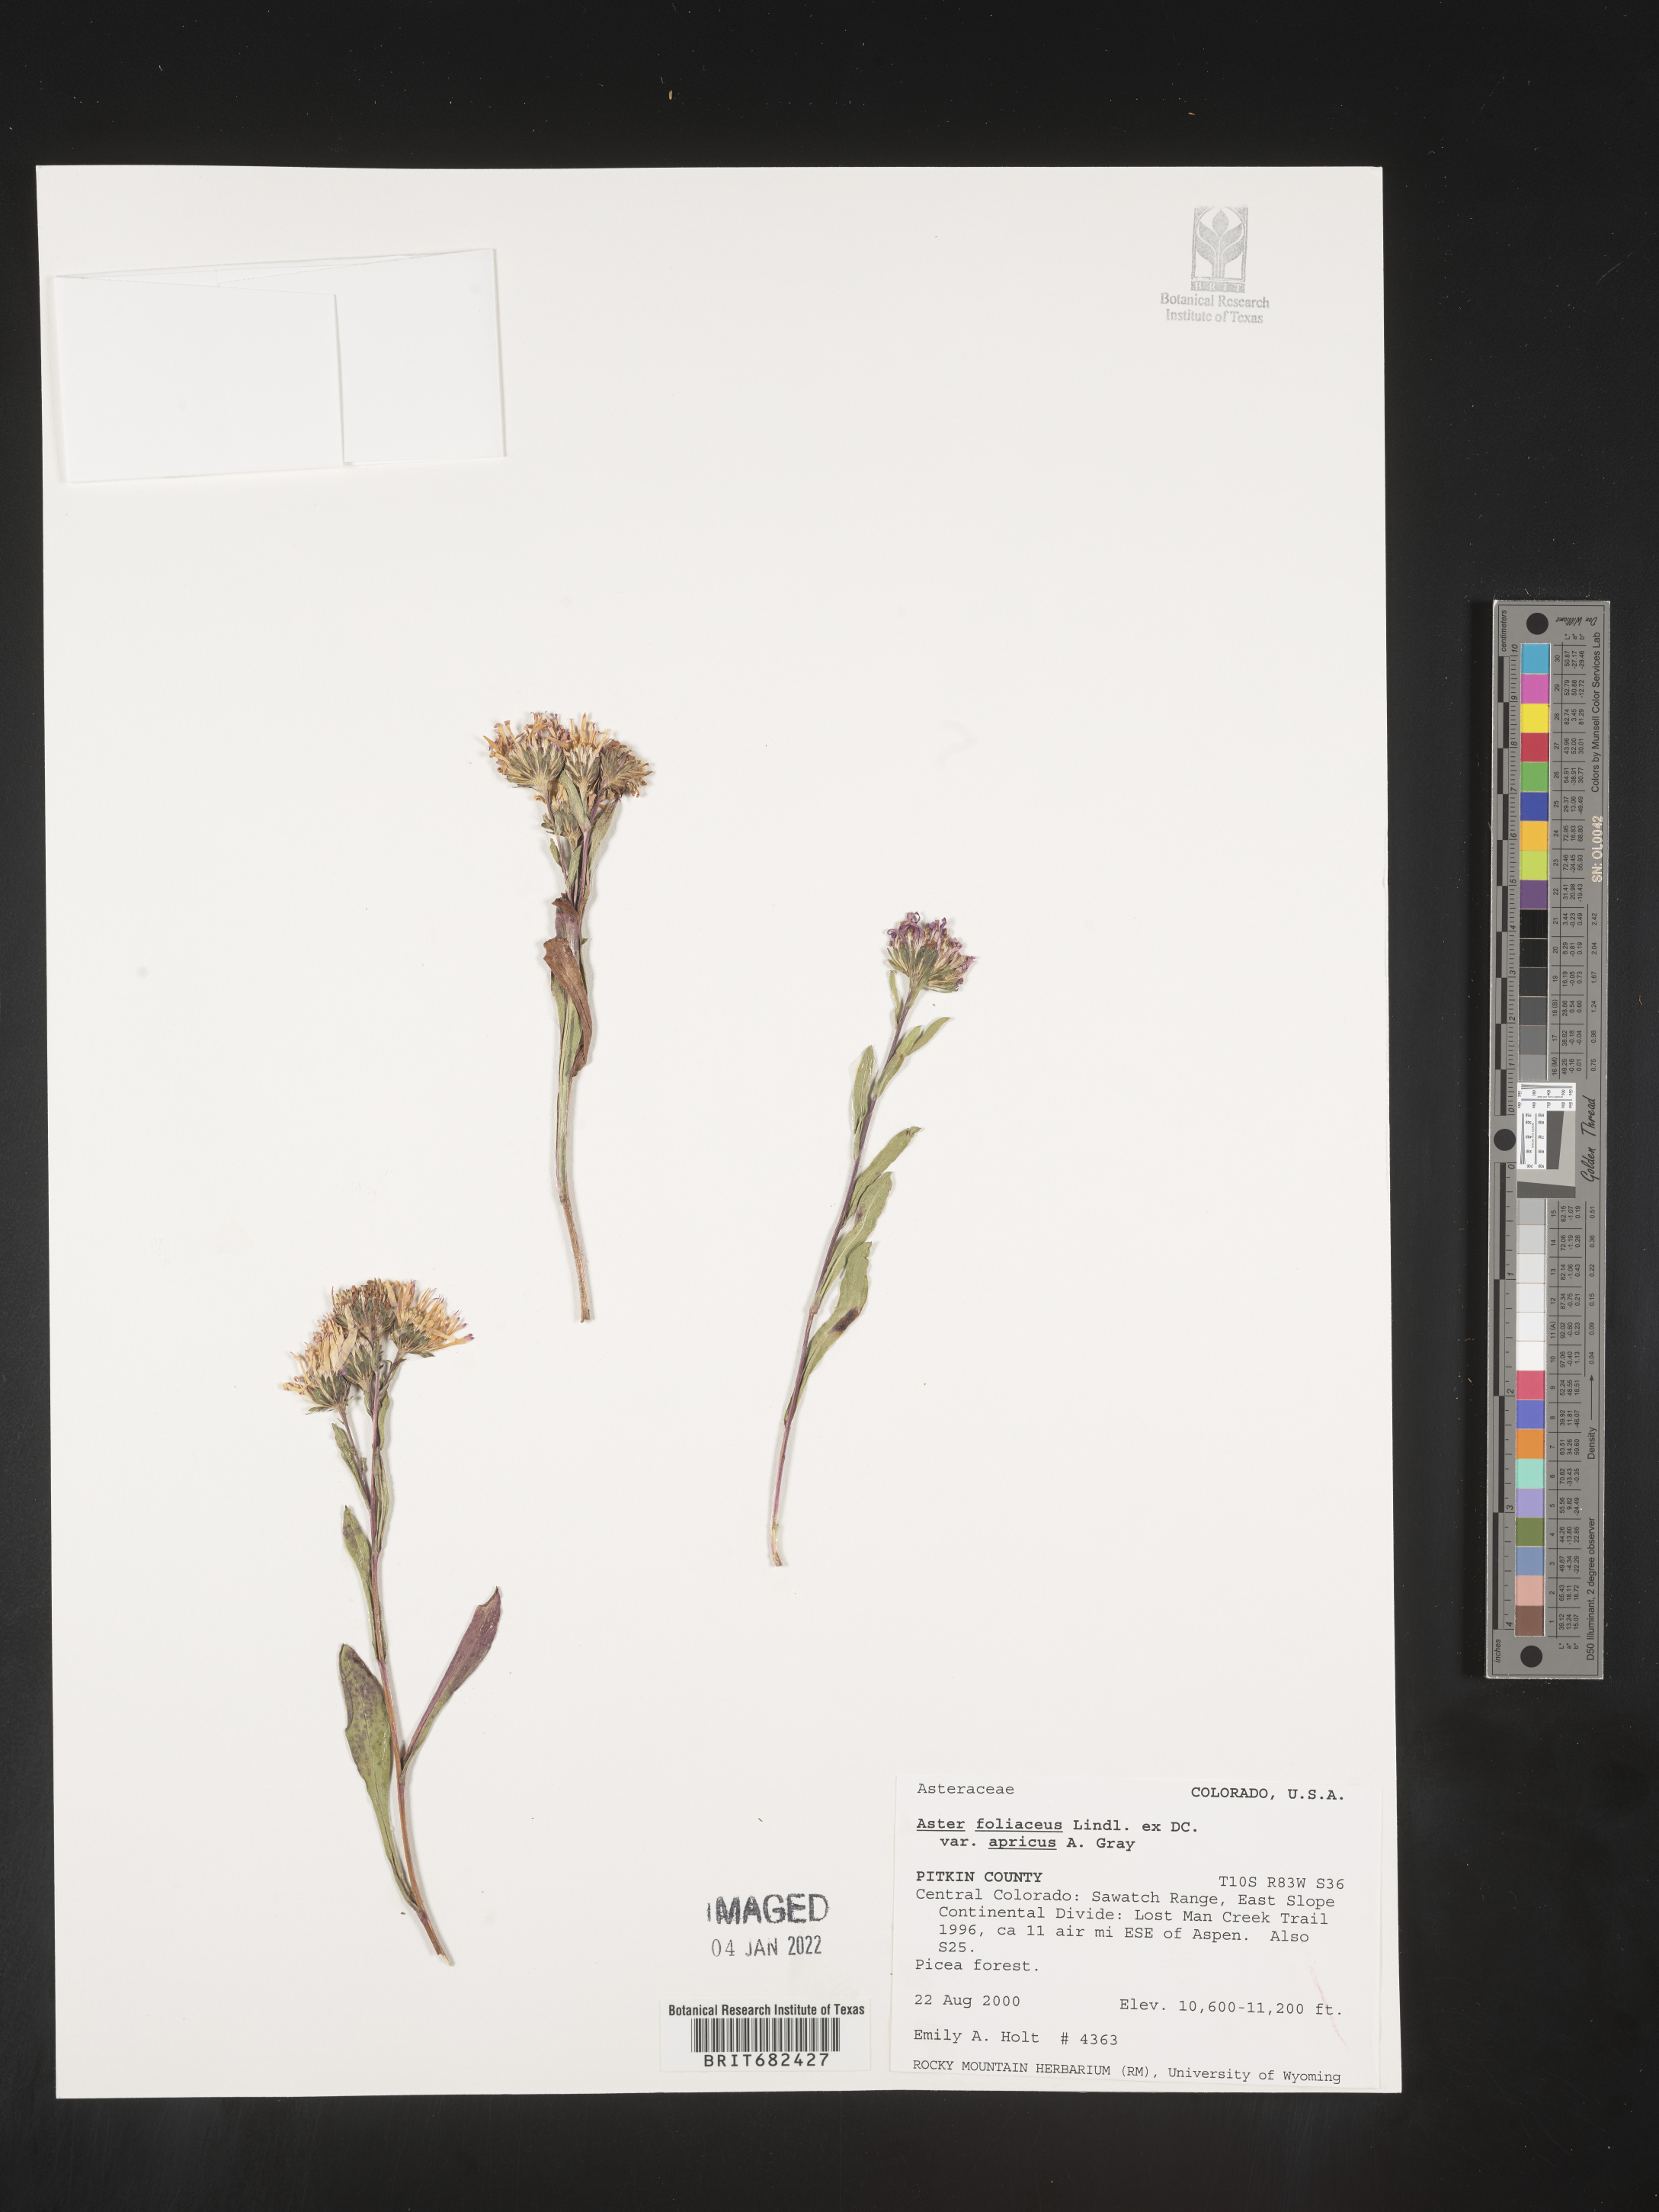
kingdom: Plantae
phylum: Tracheophyta
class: Magnoliopsida
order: Asterales
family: Asteraceae
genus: Aster
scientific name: Aster
